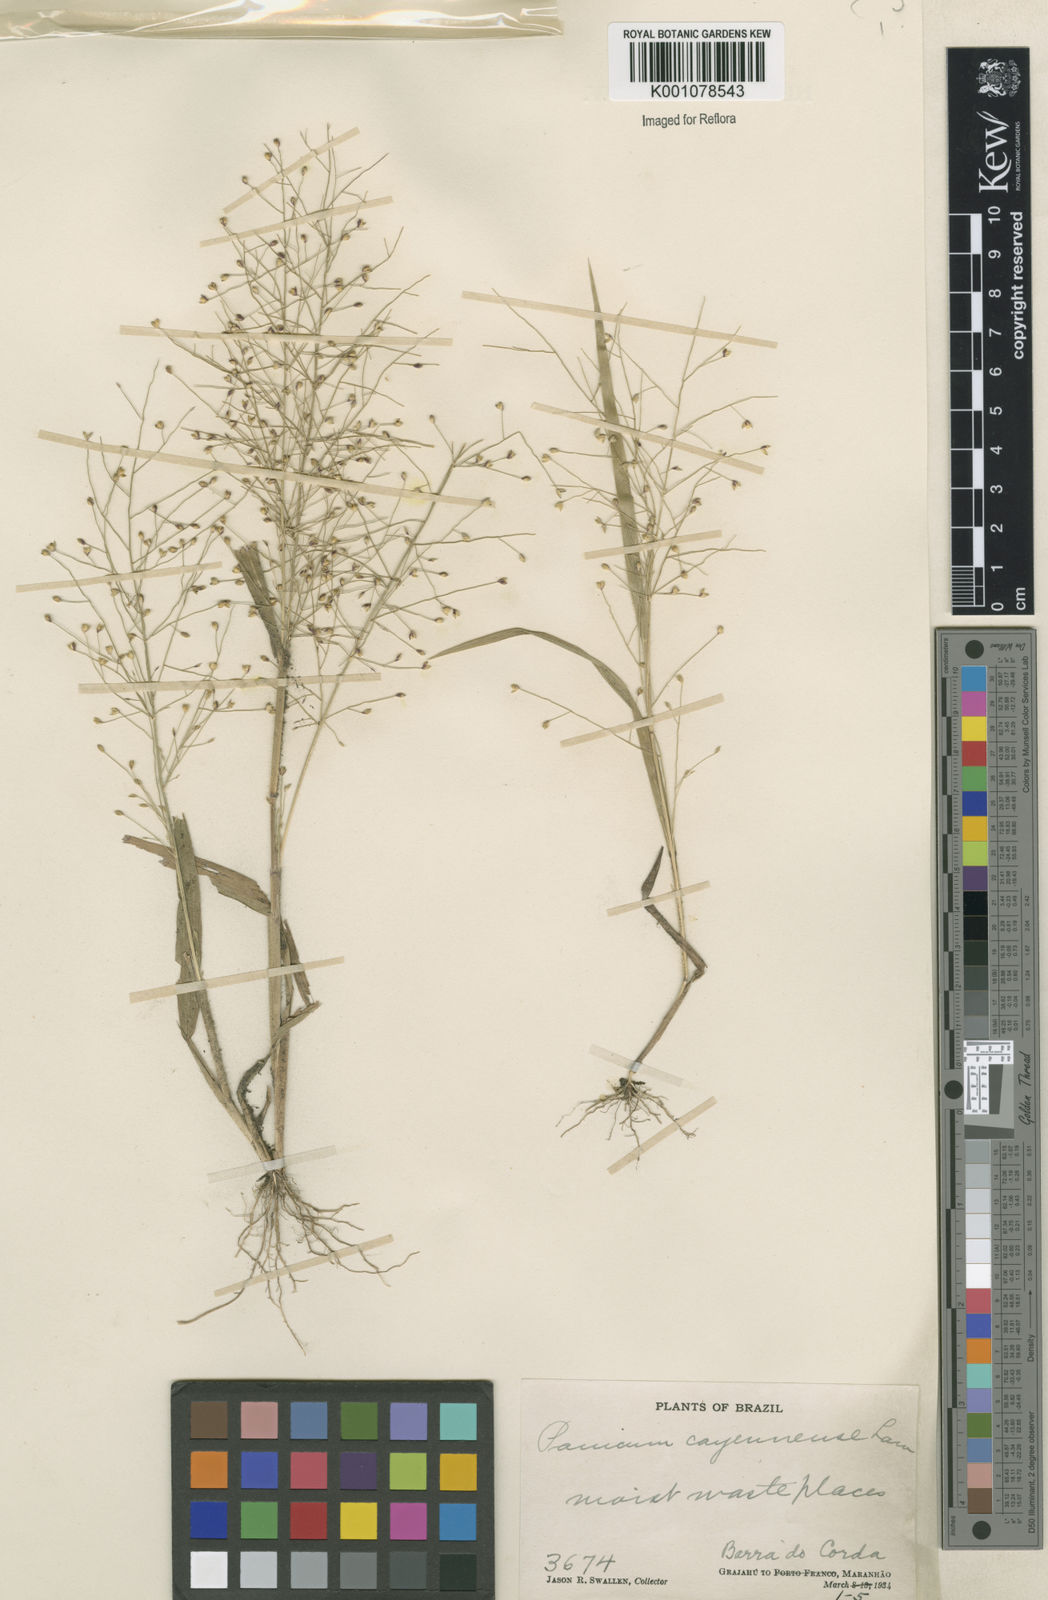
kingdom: Plantae
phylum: Tracheophyta
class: Liliopsida
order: Poales
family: Poaceae
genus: Panicum
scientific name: Panicum cayennense
